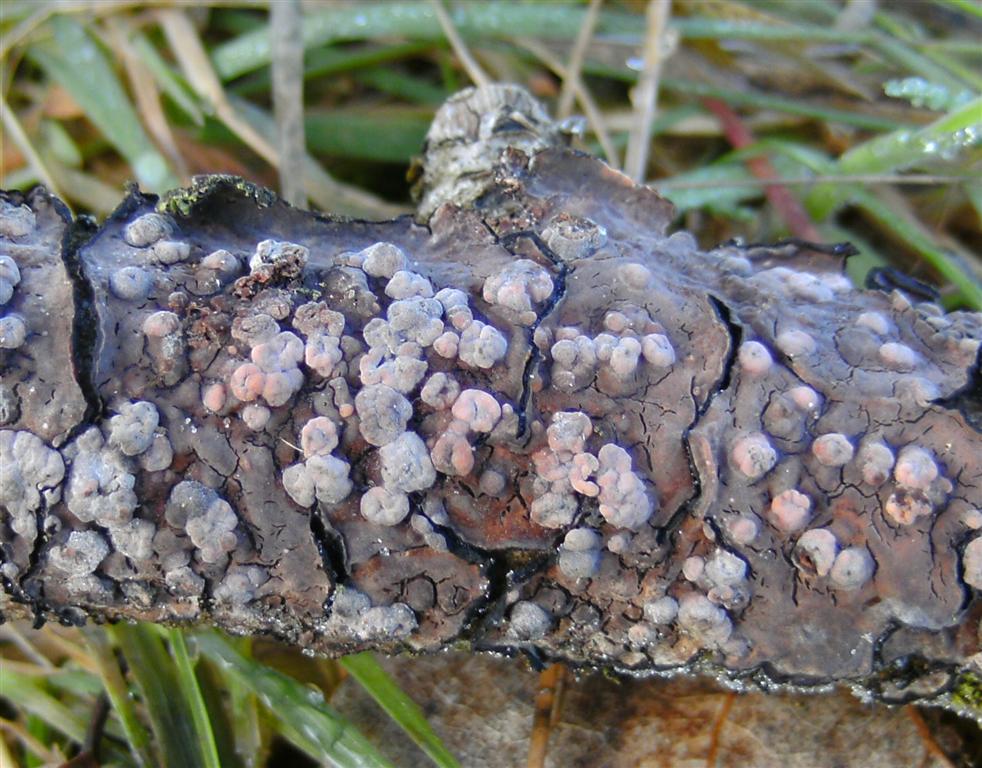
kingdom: Fungi
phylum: Basidiomycota
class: Pucciniomycetes
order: Platygloeales
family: Platygloeaceae
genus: Platygloea
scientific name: Platygloea
